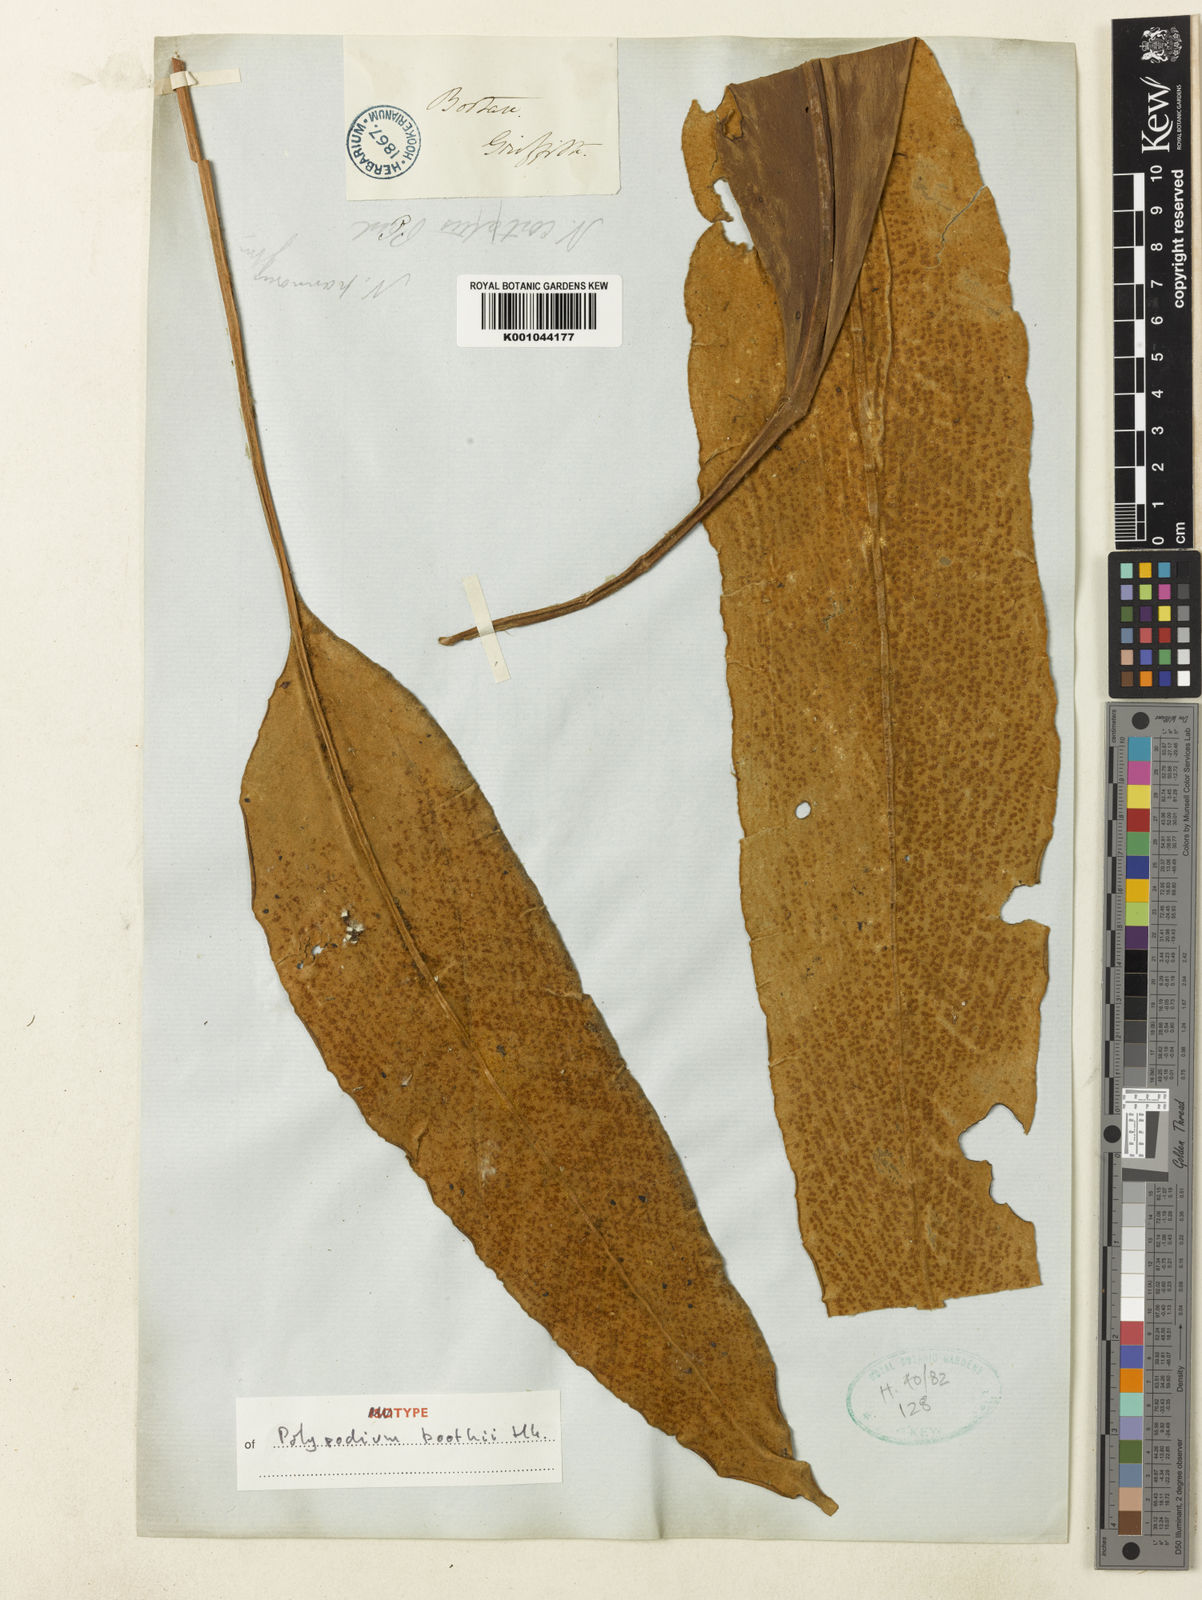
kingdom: Plantae
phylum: Tracheophyta
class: Polypodiopsida
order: Polypodiales
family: Polypodiaceae
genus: Pyrrosia
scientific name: Pyrrosia boothii
